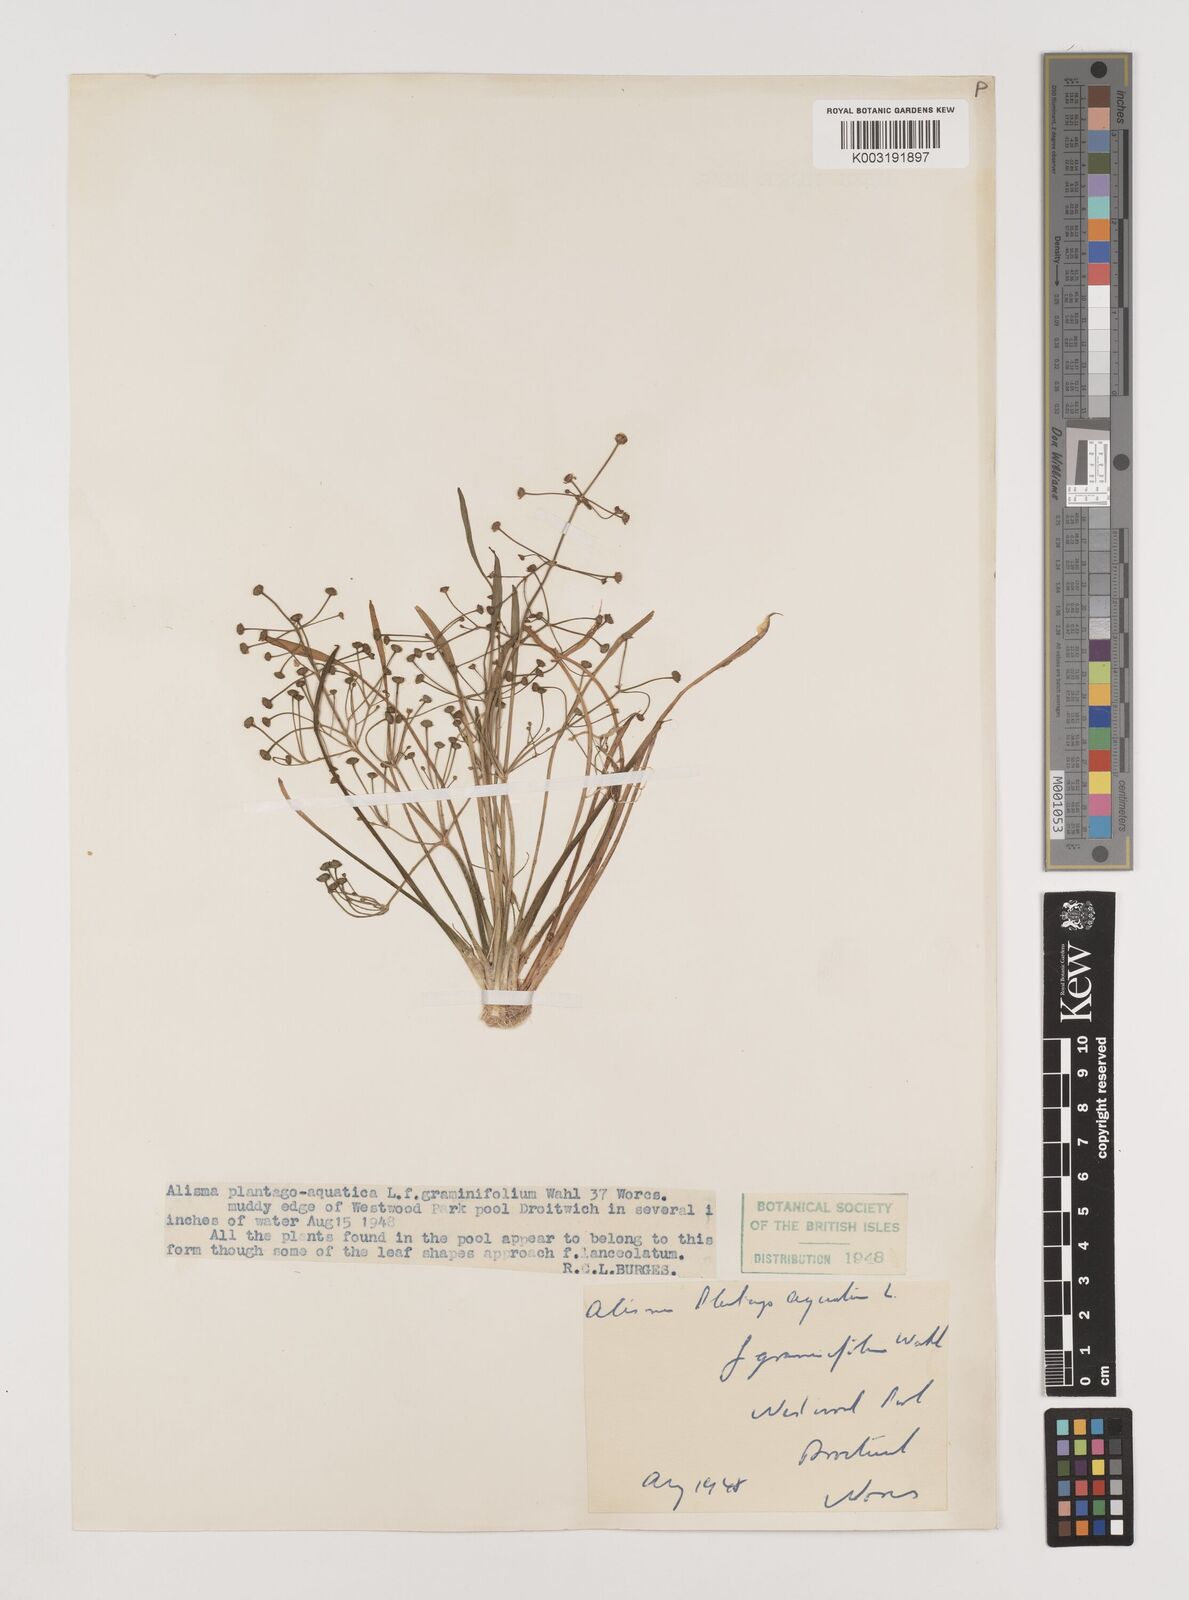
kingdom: Plantae
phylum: Tracheophyta
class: Liliopsida
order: Alismatales
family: Alismataceae
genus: Alisma
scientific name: Alisma gramineum
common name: Ribbon-leaved water-plantain
